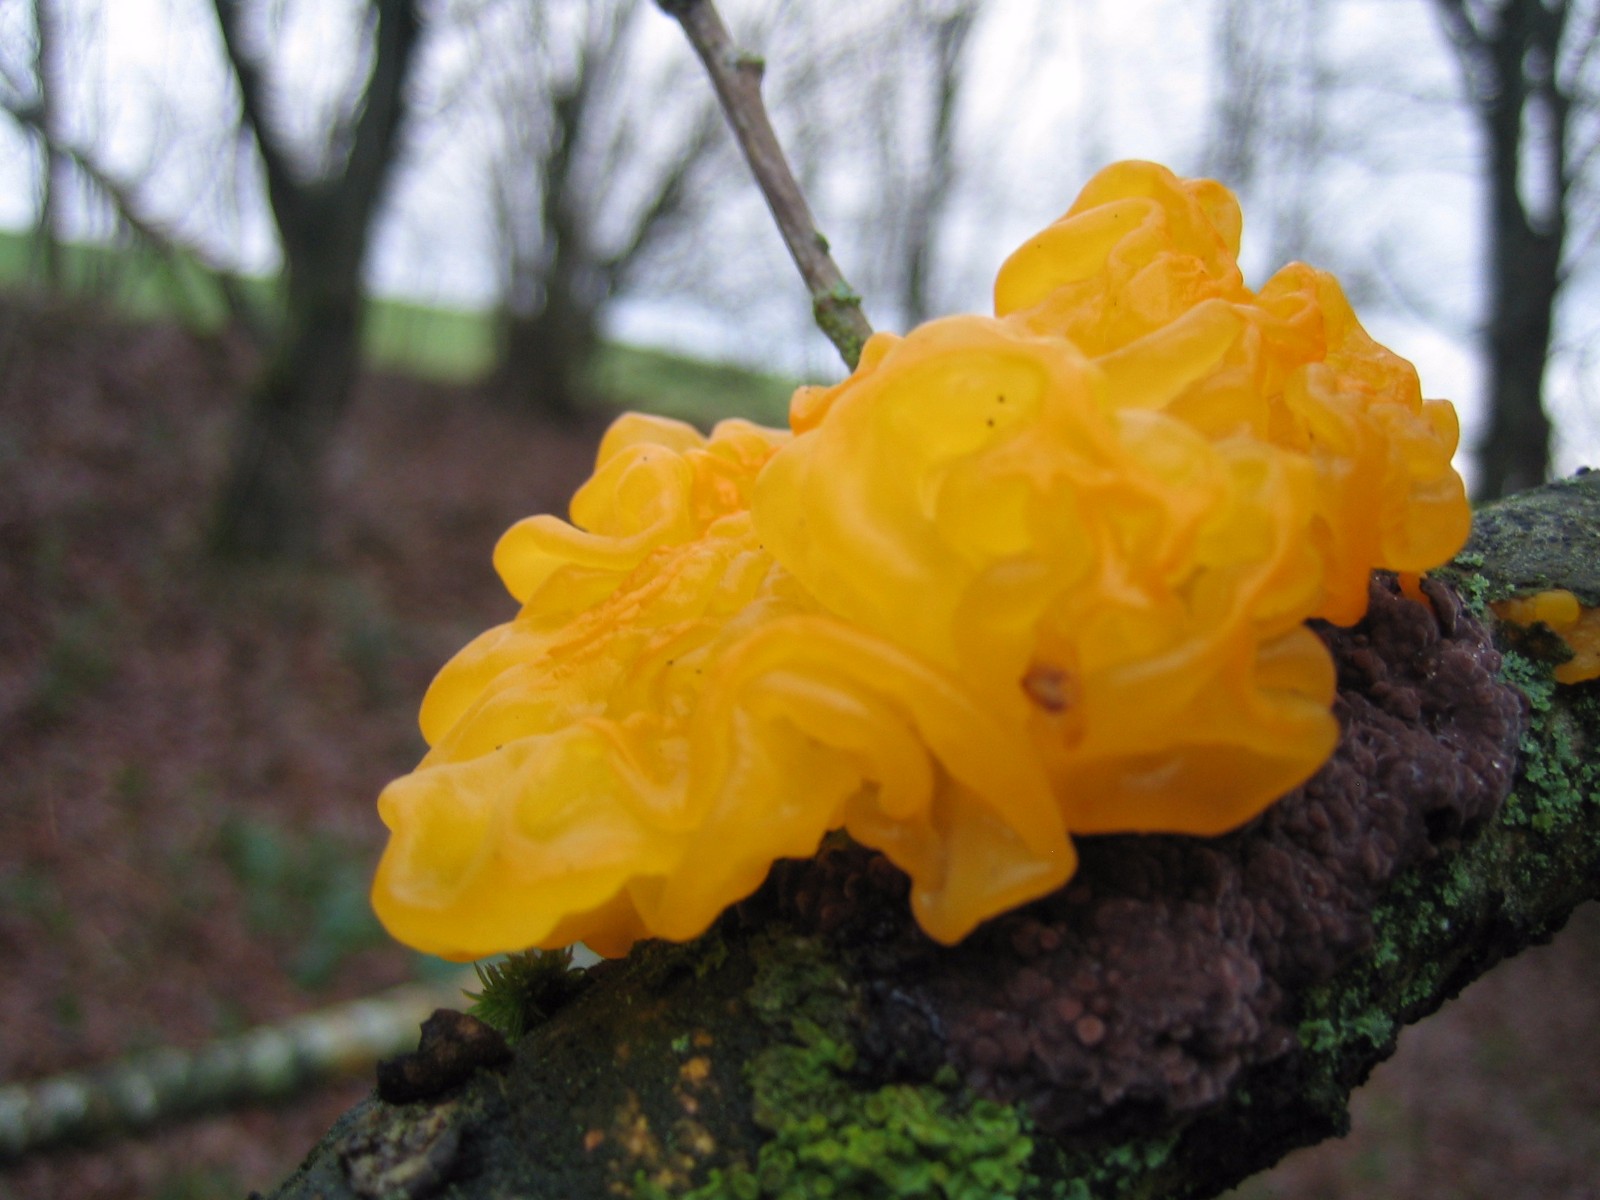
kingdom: Fungi
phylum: Basidiomycota
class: Tremellomycetes
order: Tremellales
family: Tremellaceae
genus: Tremella
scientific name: Tremella mesenterica
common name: gul bævresvamp
